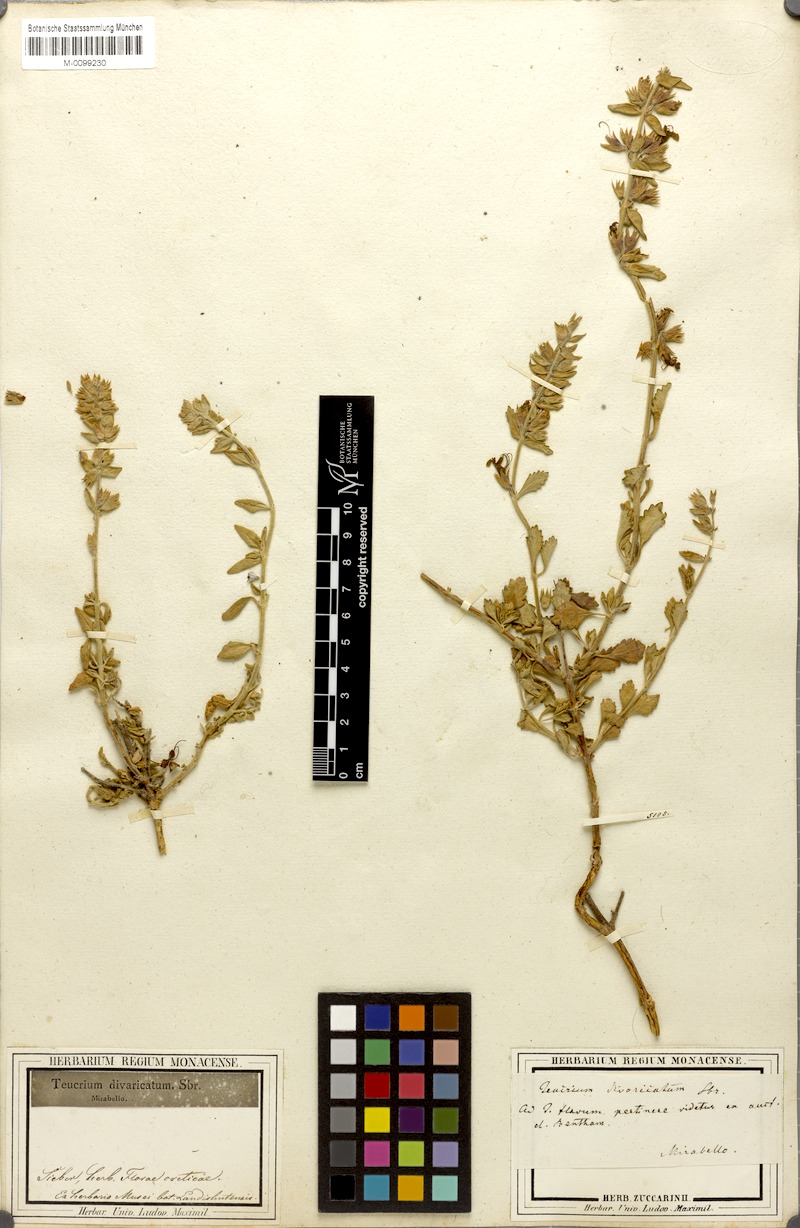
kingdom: Plantae
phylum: Tracheophyta
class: Magnoliopsida
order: Lamiales
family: Lamiaceae
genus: Teucrium
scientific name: Teucrium divaricatum
